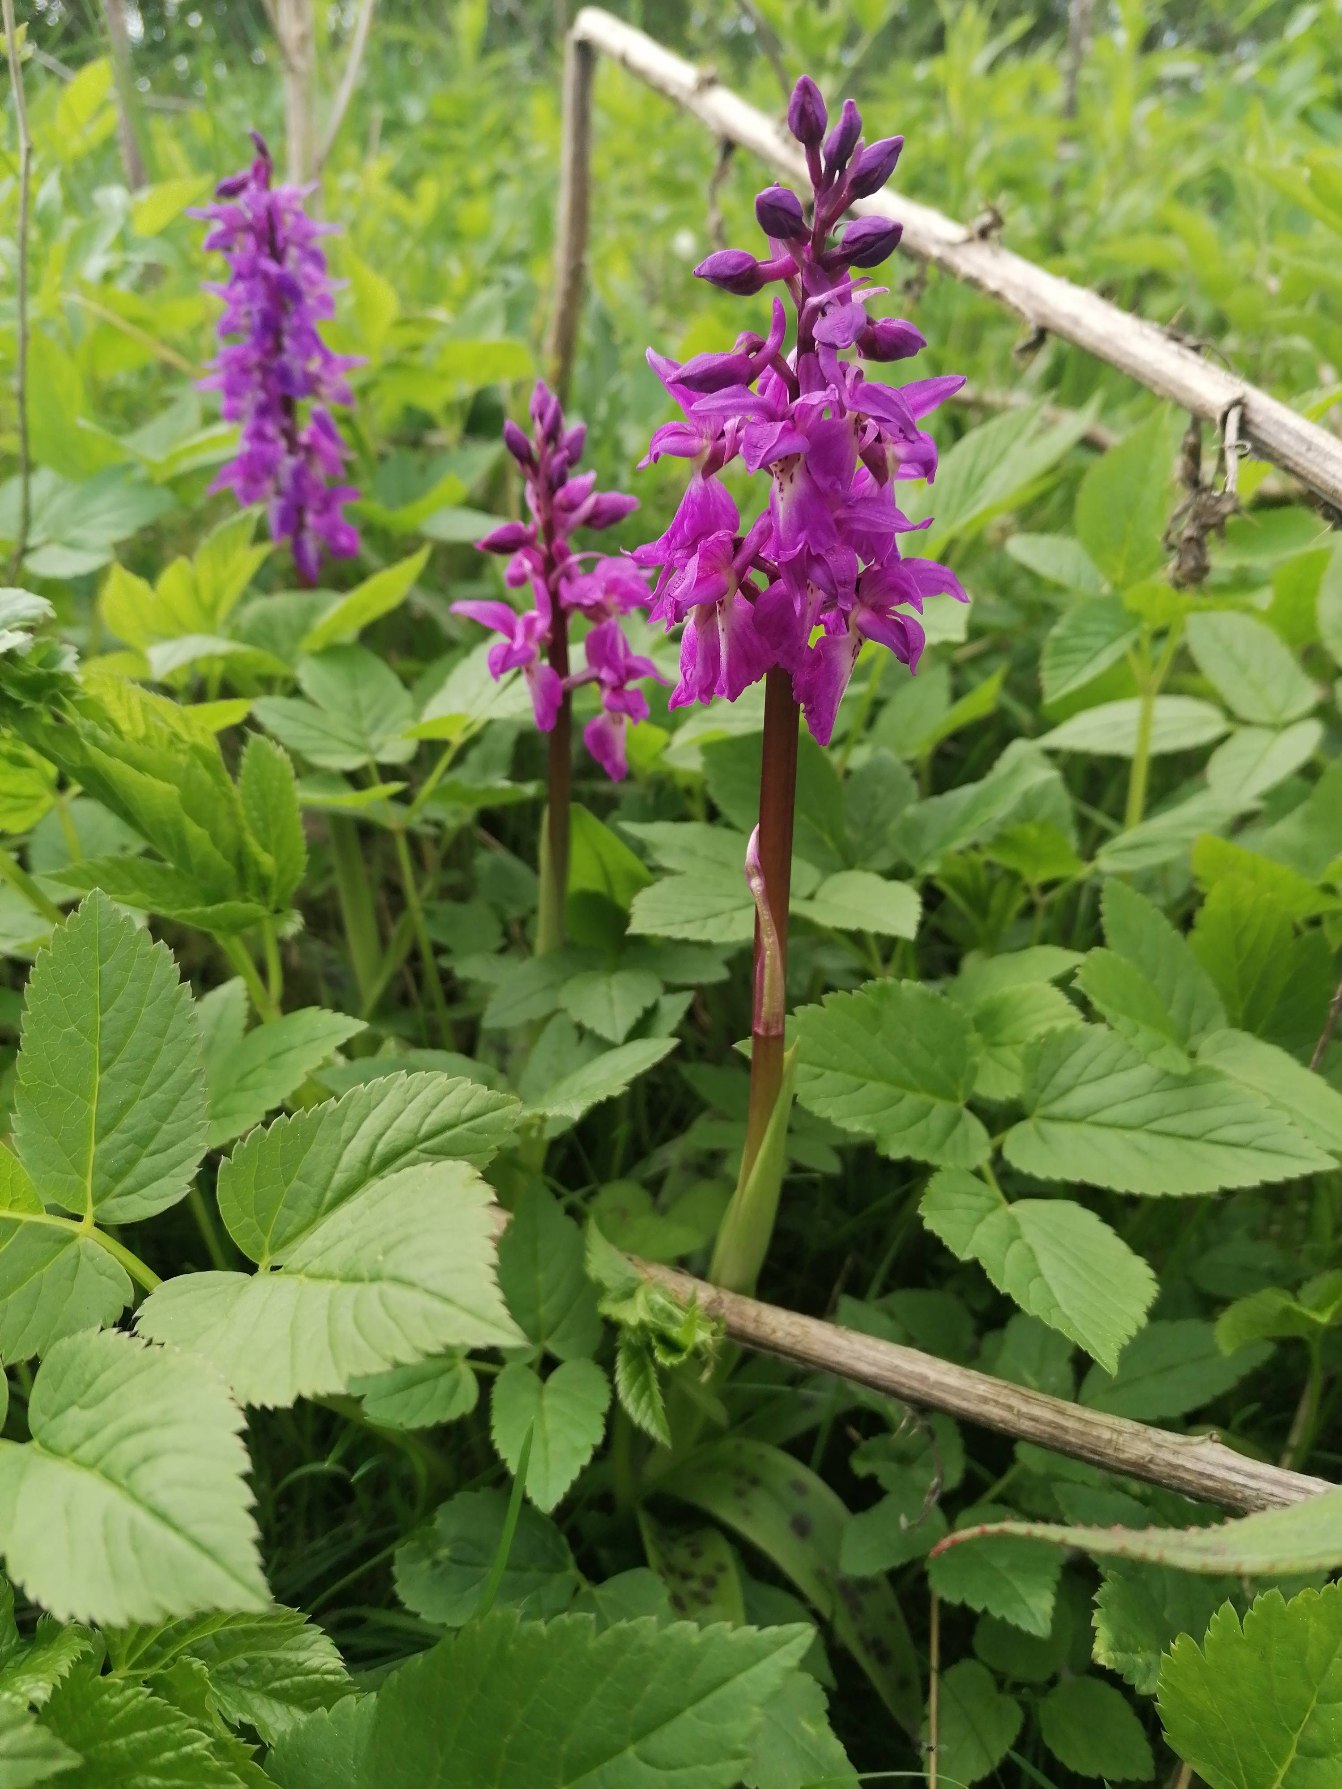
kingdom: Plantae
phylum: Tracheophyta
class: Liliopsida
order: Asparagales
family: Orchidaceae
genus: Orchis
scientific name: Orchis mascula
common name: Tyndakset gøgeurt
